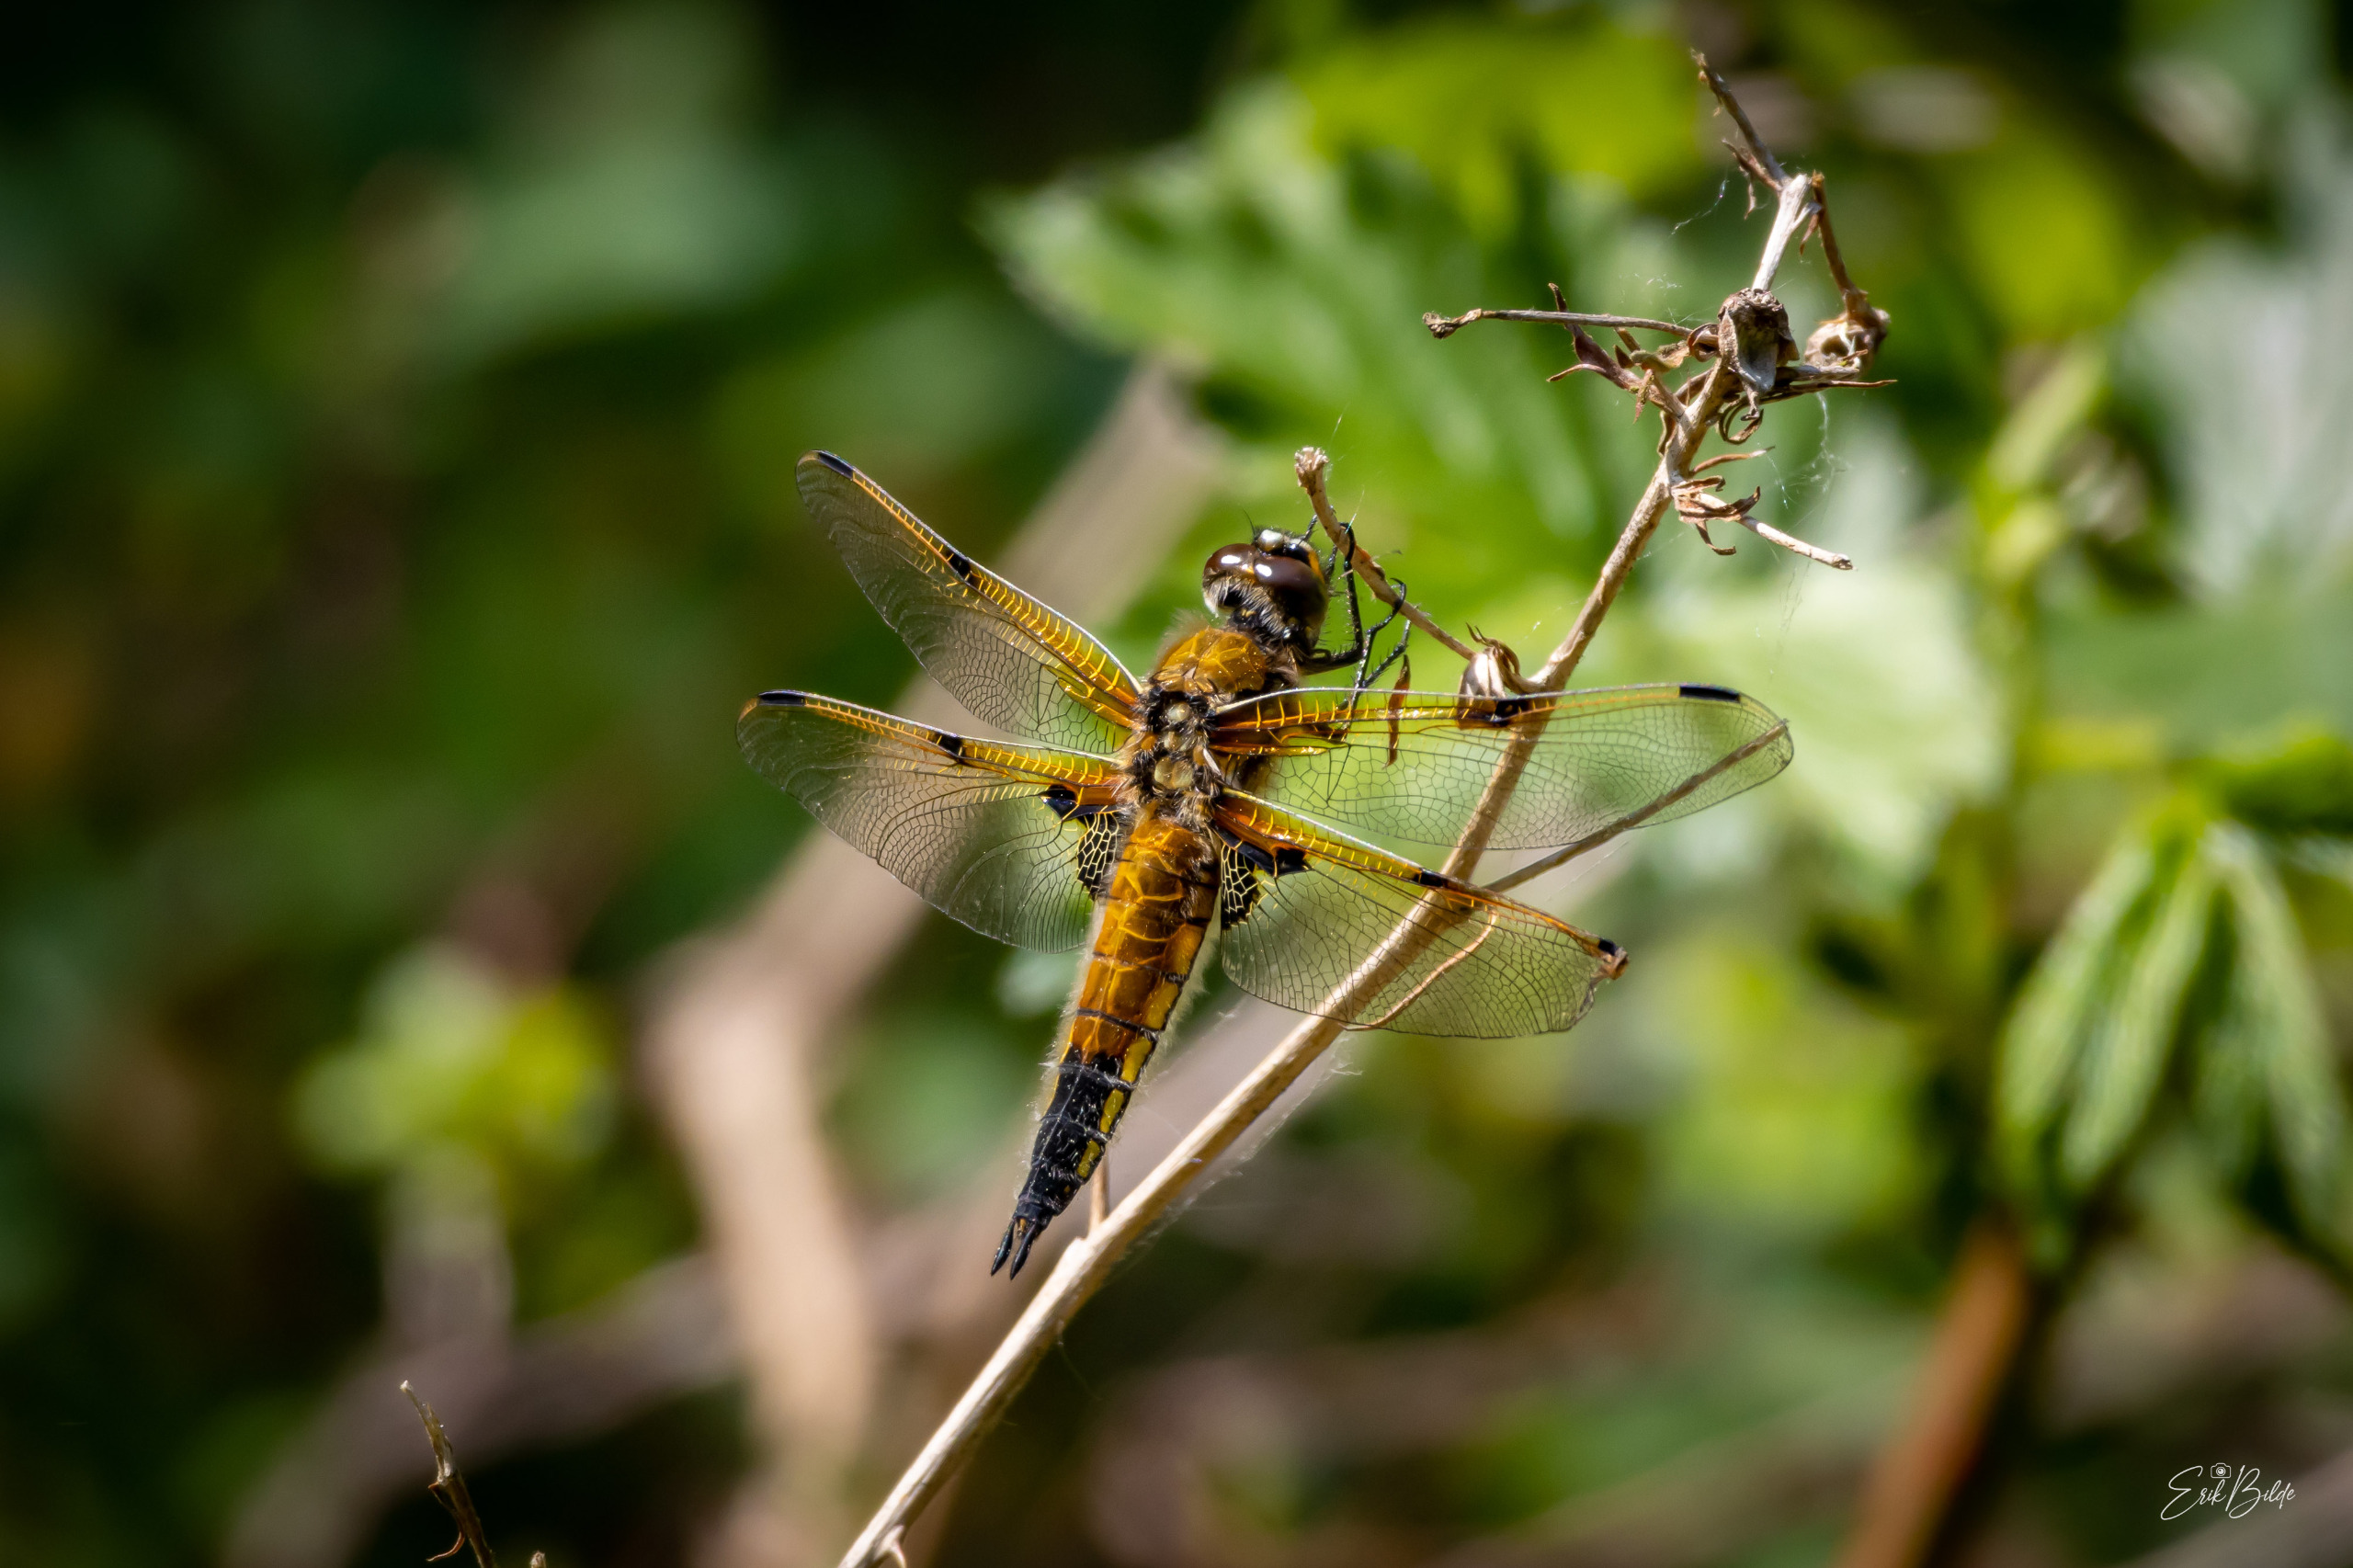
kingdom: Animalia
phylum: Arthropoda
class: Insecta
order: Odonata
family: Libellulidae
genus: Libellula
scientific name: Libellula quadrimaculata
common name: Fireplettet libel
